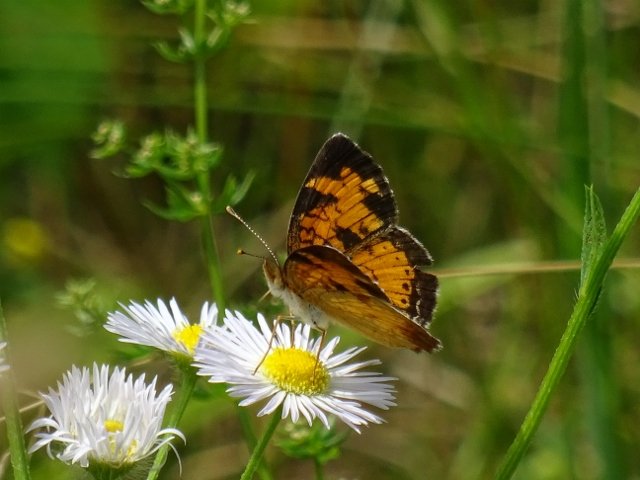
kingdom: Animalia
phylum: Arthropoda
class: Insecta
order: Lepidoptera
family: Nymphalidae
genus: Phyciodes
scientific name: Phyciodes tharos
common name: Northern Crescent
